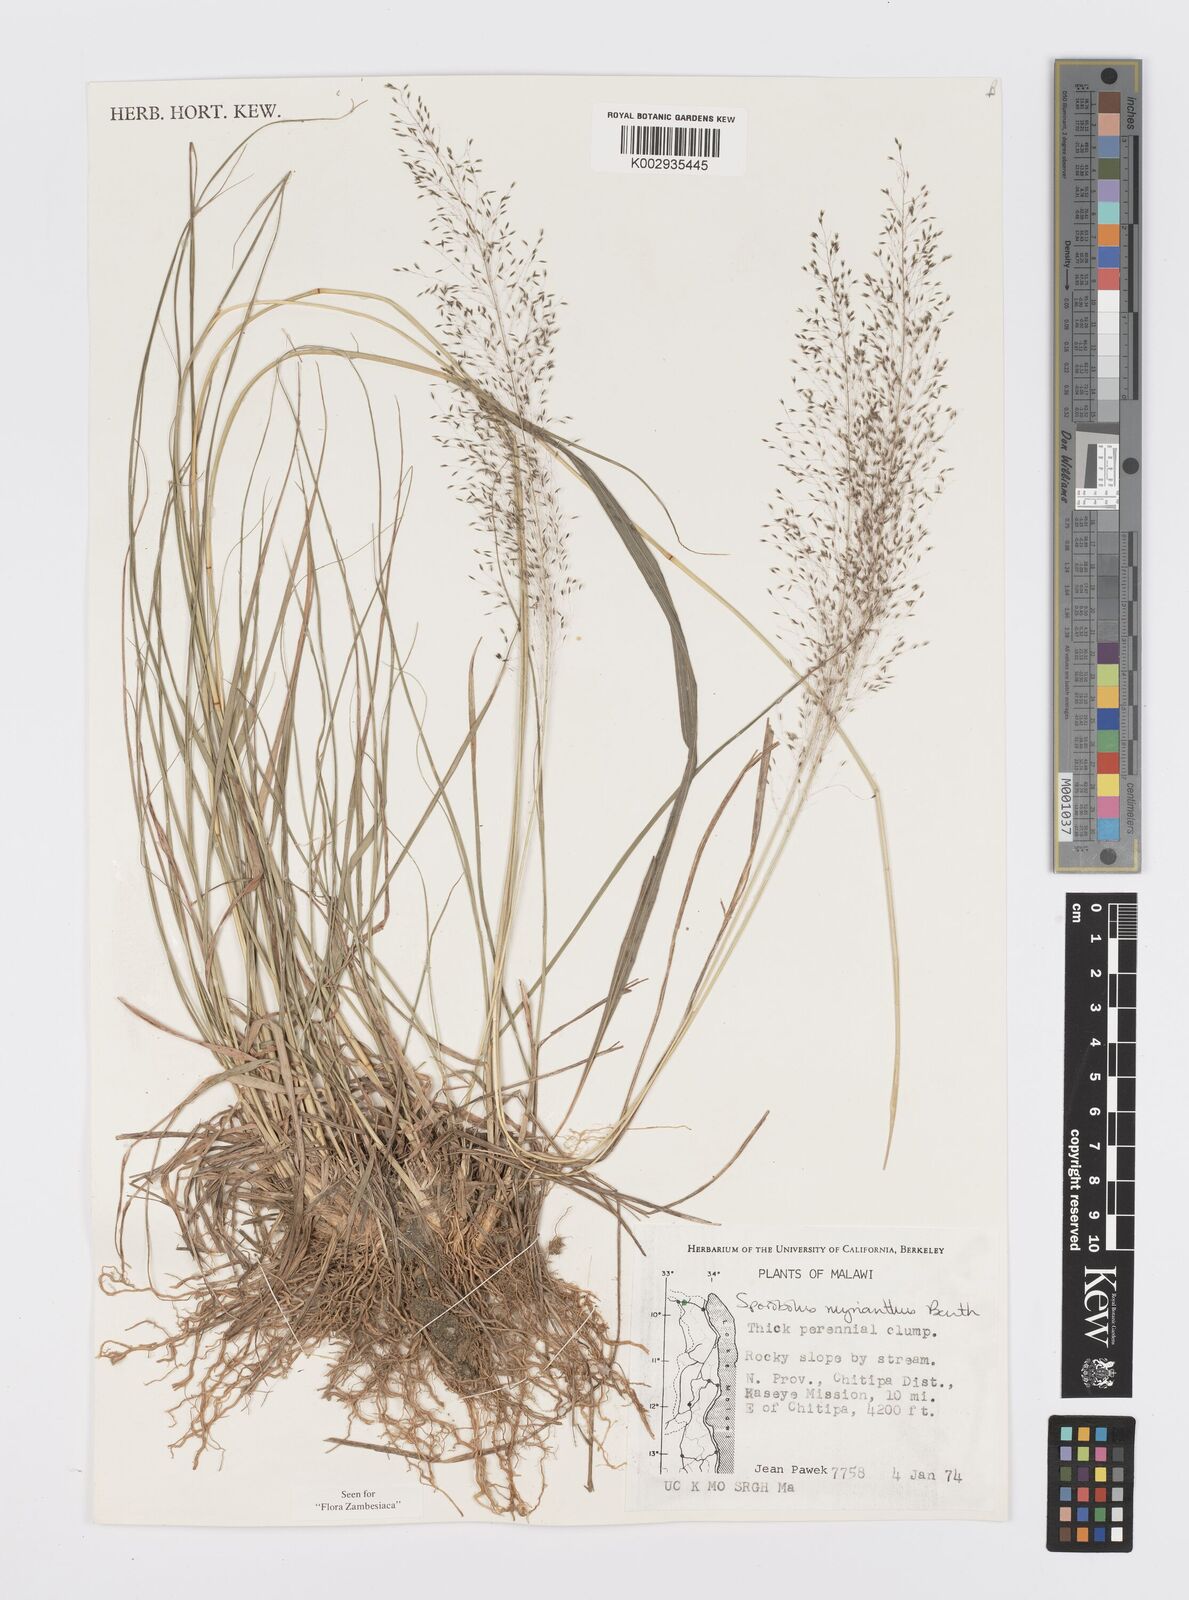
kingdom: Plantae
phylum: Tracheophyta
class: Liliopsida
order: Poales
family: Poaceae
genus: Sporobolus
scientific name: Sporobolus myrianthus
